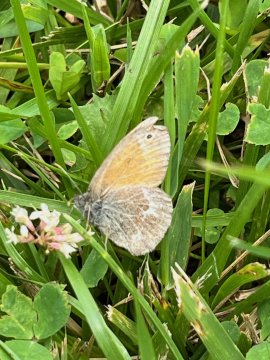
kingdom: Animalia
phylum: Arthropoda
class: Insecta
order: Lepidoptera
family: Nymphalidae
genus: Coenonympha
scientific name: Coenonympha tullia
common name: Large Heath
